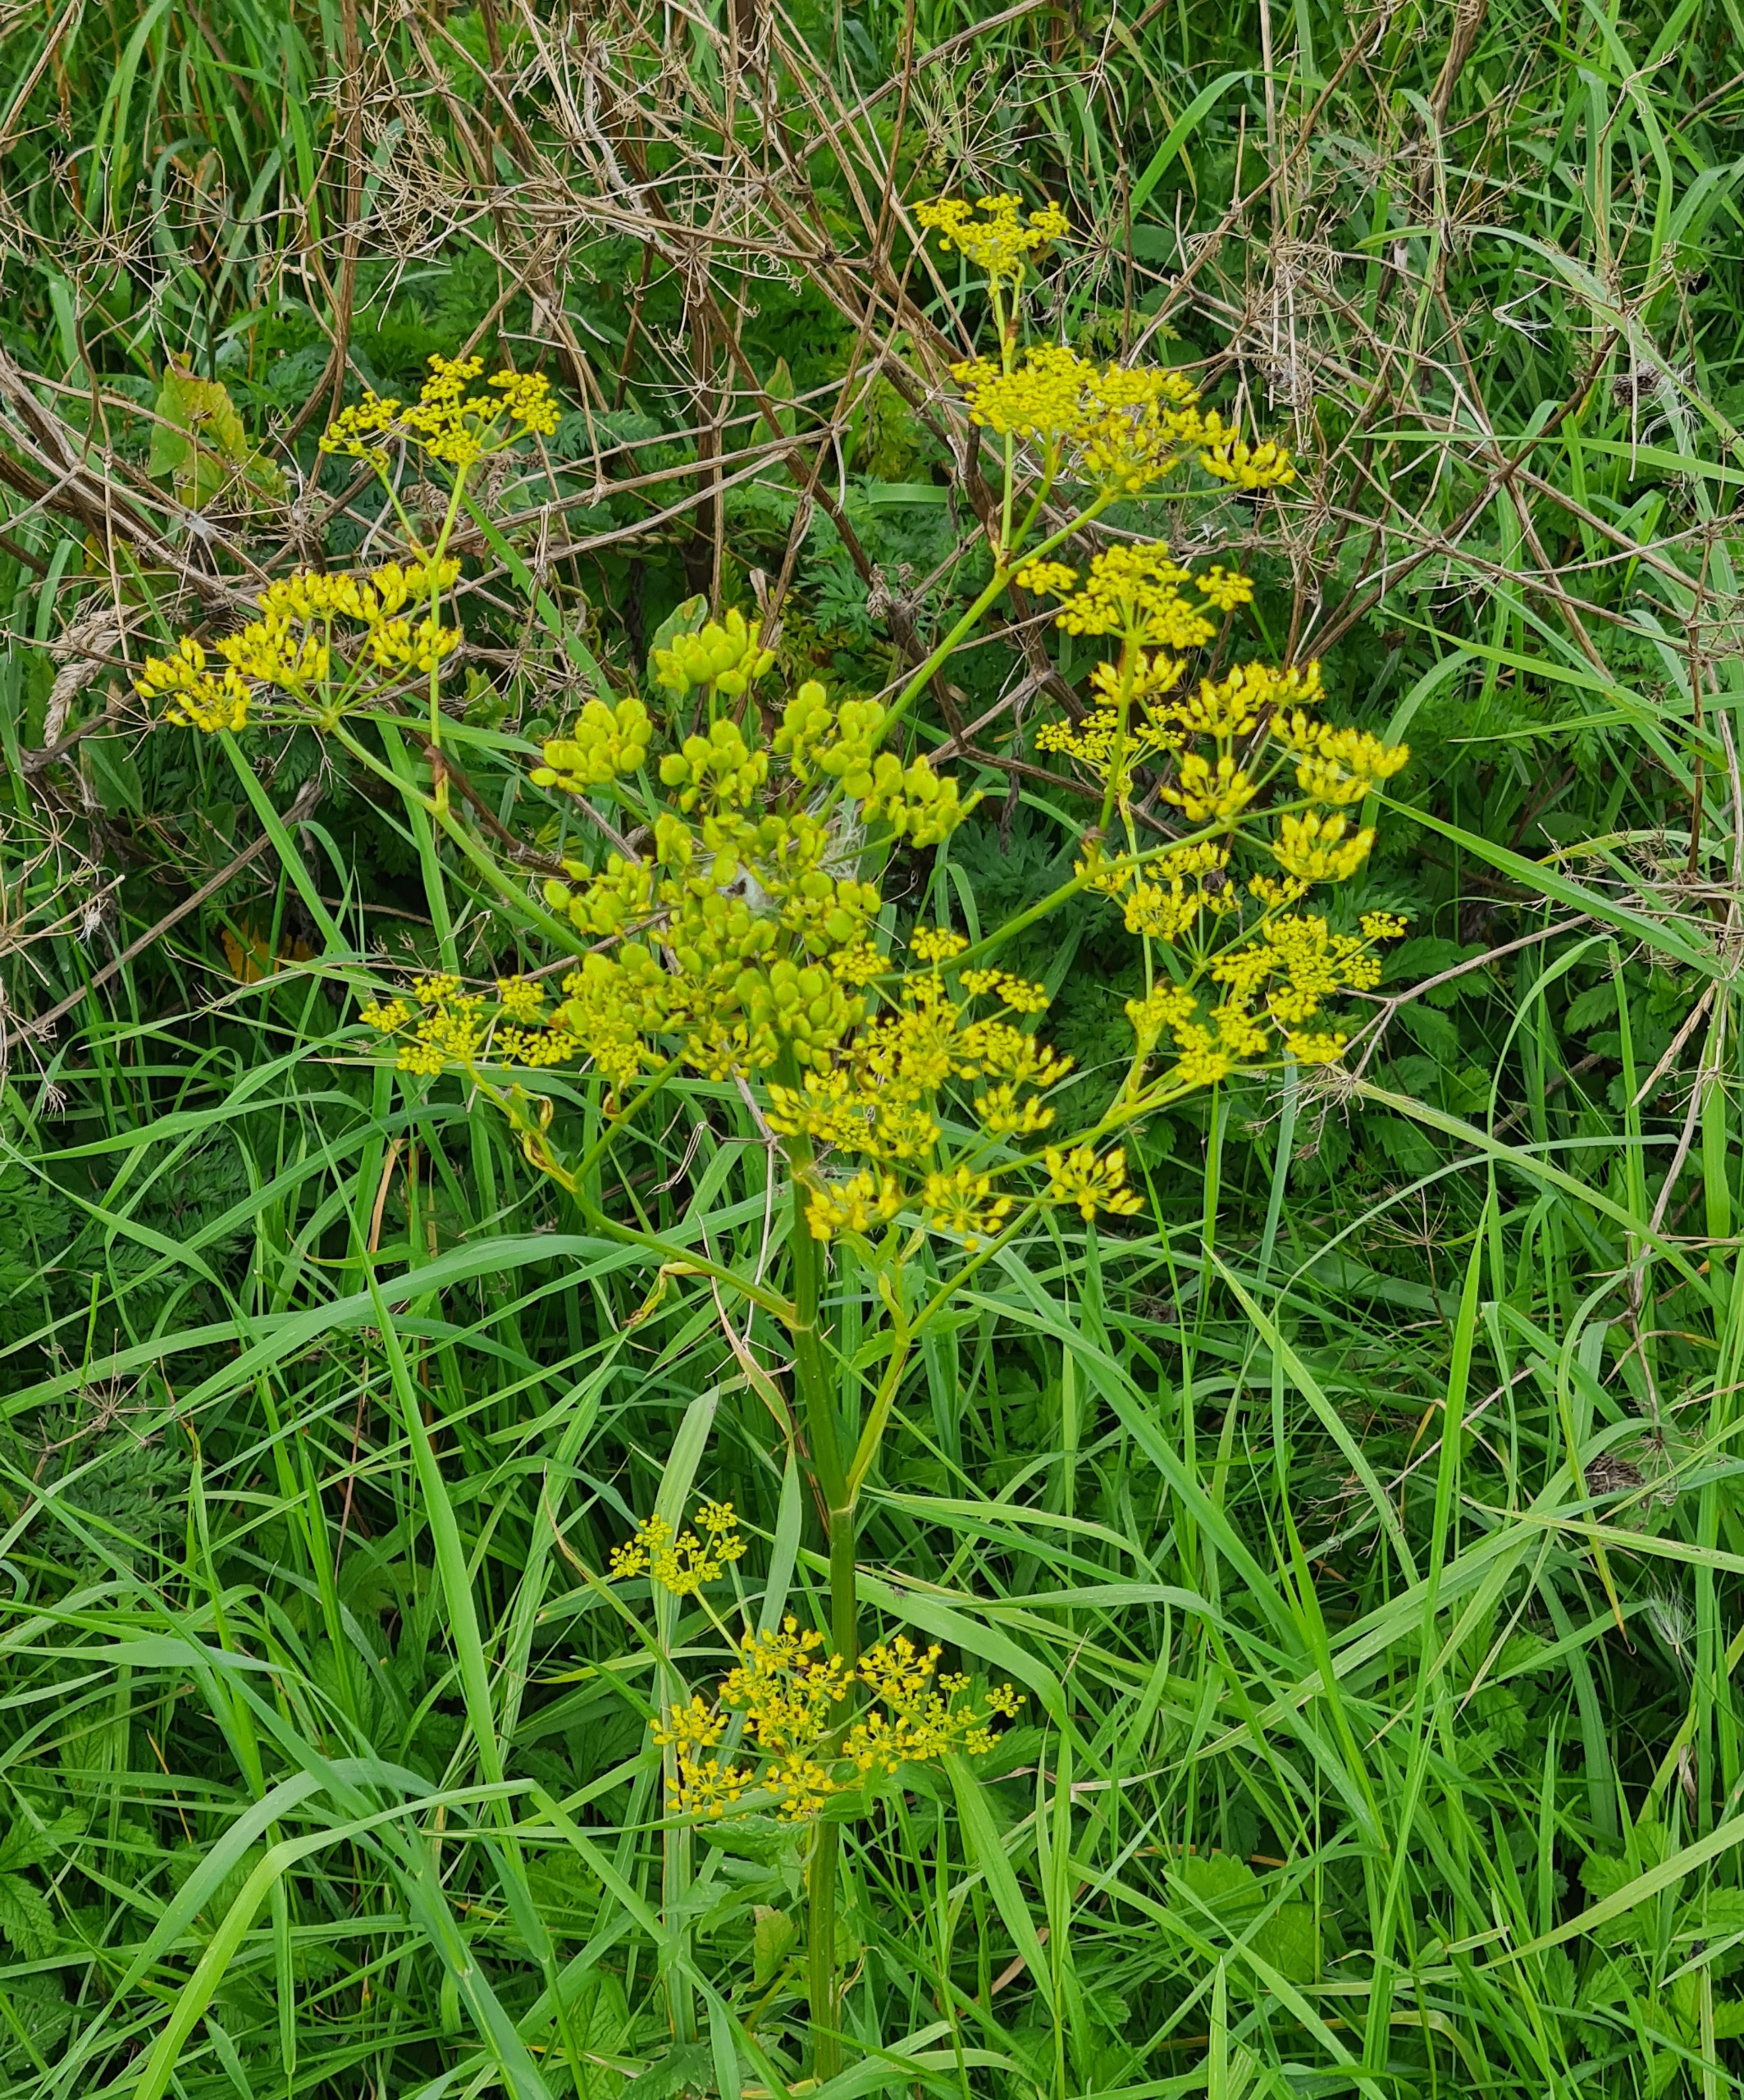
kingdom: Plantae
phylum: Tracheophyta
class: Magnoliopsida
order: Apiales
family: Apiaceae
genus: Pastinaca
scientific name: Pastinaca sativa
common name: Pastinak
